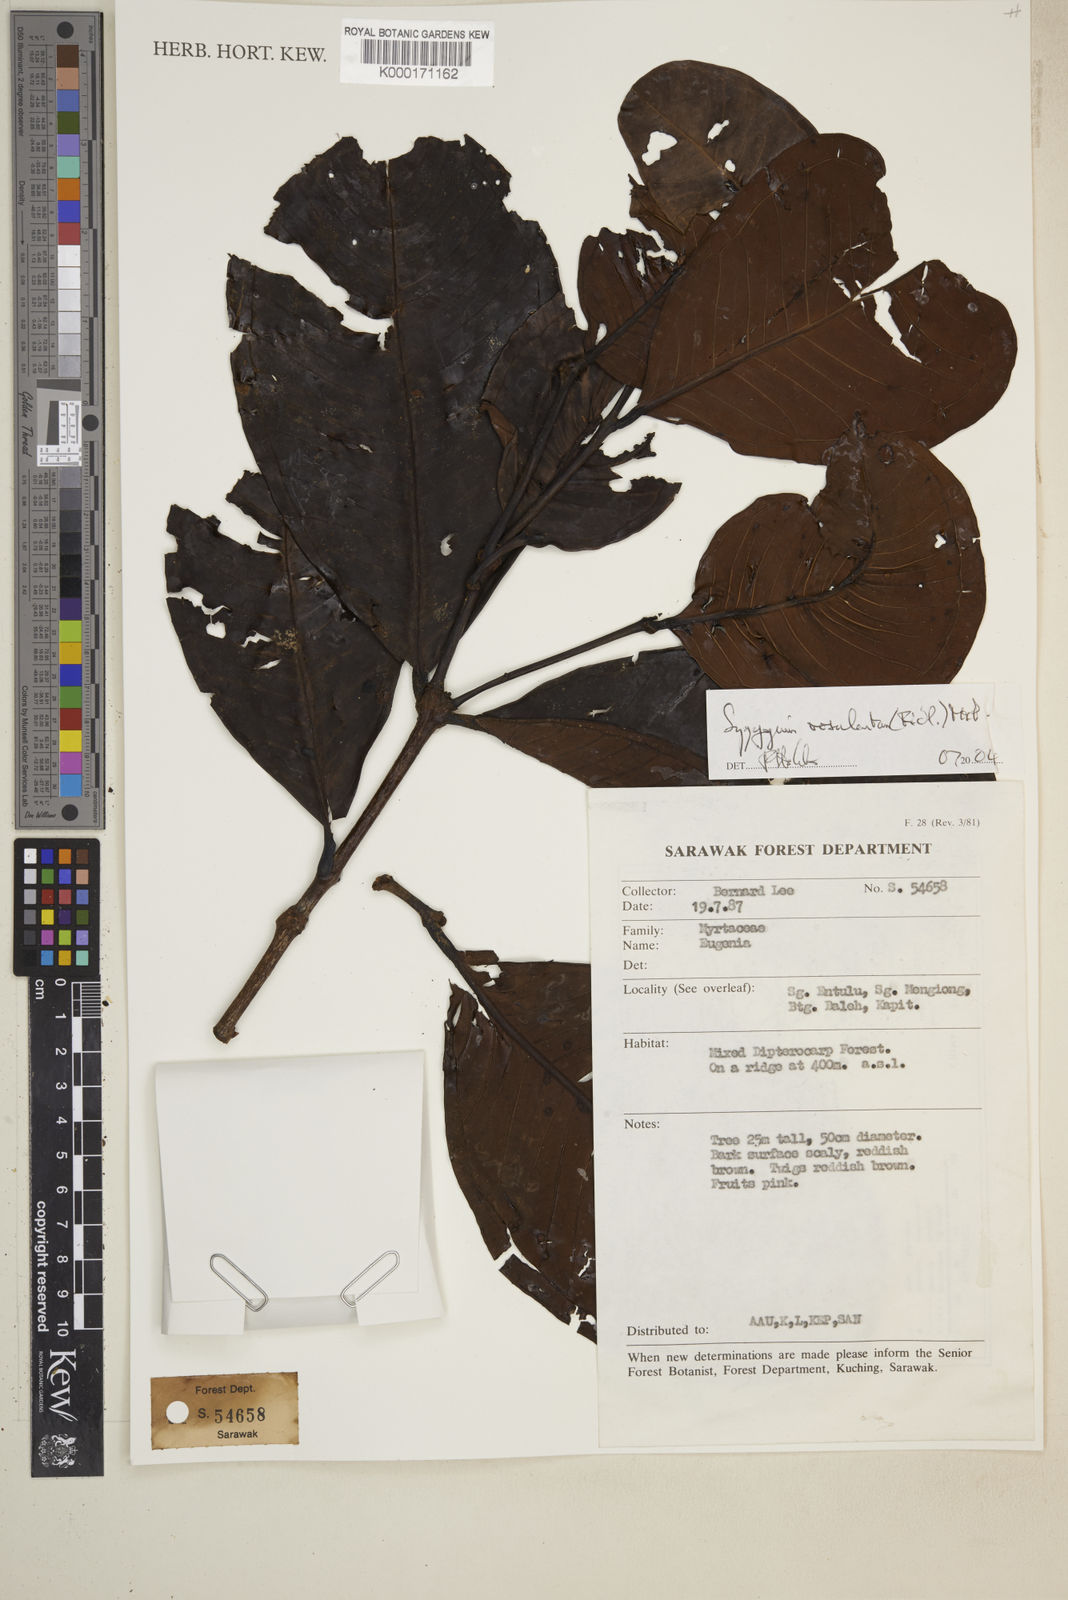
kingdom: Plantae
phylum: Tracheophyta
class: Magnoliopsida
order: Myrtales
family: Myrtaceae
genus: Syzygium
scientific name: Syzygium rosulentum
